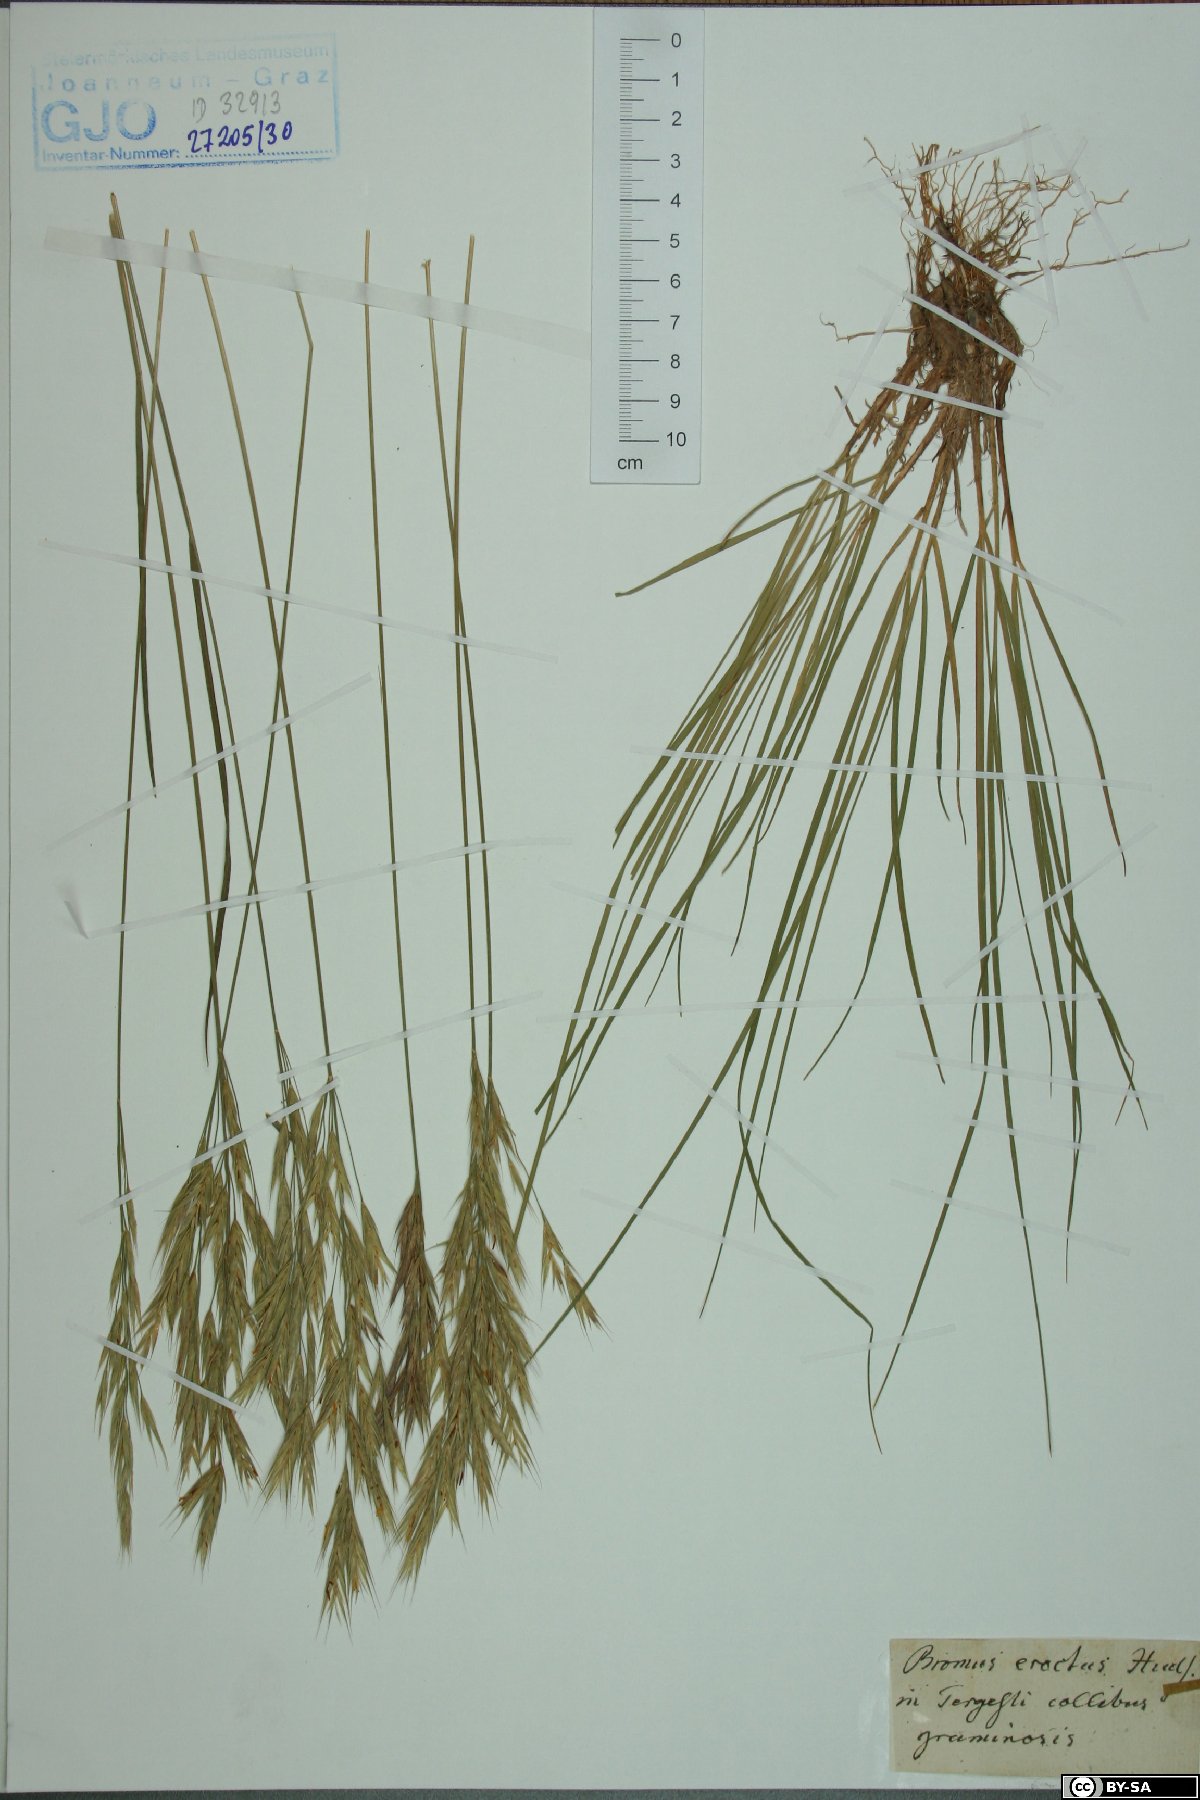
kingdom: Plantae
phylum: Tracheophyta
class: Liliopsida
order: Poales
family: Poaceae
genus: Bromus
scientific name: Bromus erectus
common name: Erect brome
